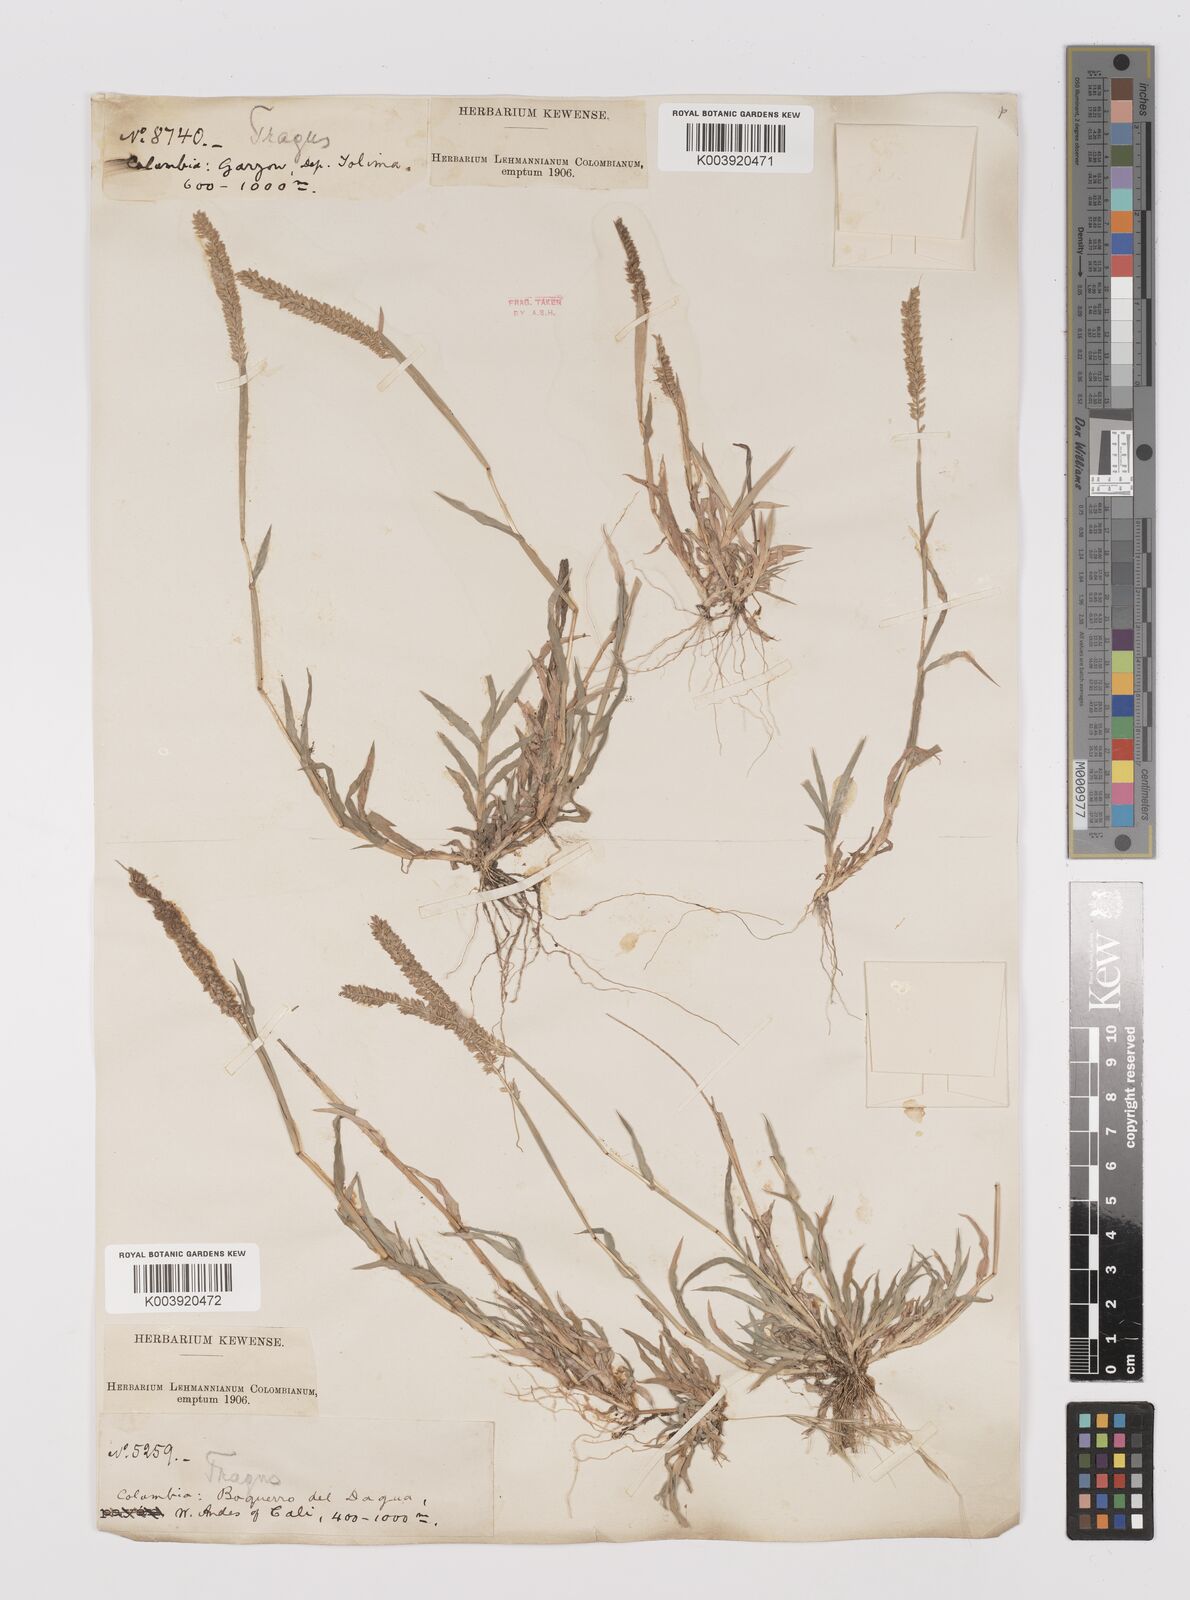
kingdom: Plantae
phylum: Tracheophyta
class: Liliopsida
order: Poales
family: Poaceae
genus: Tragus
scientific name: Tragus berteronianus
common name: African bur-grass
